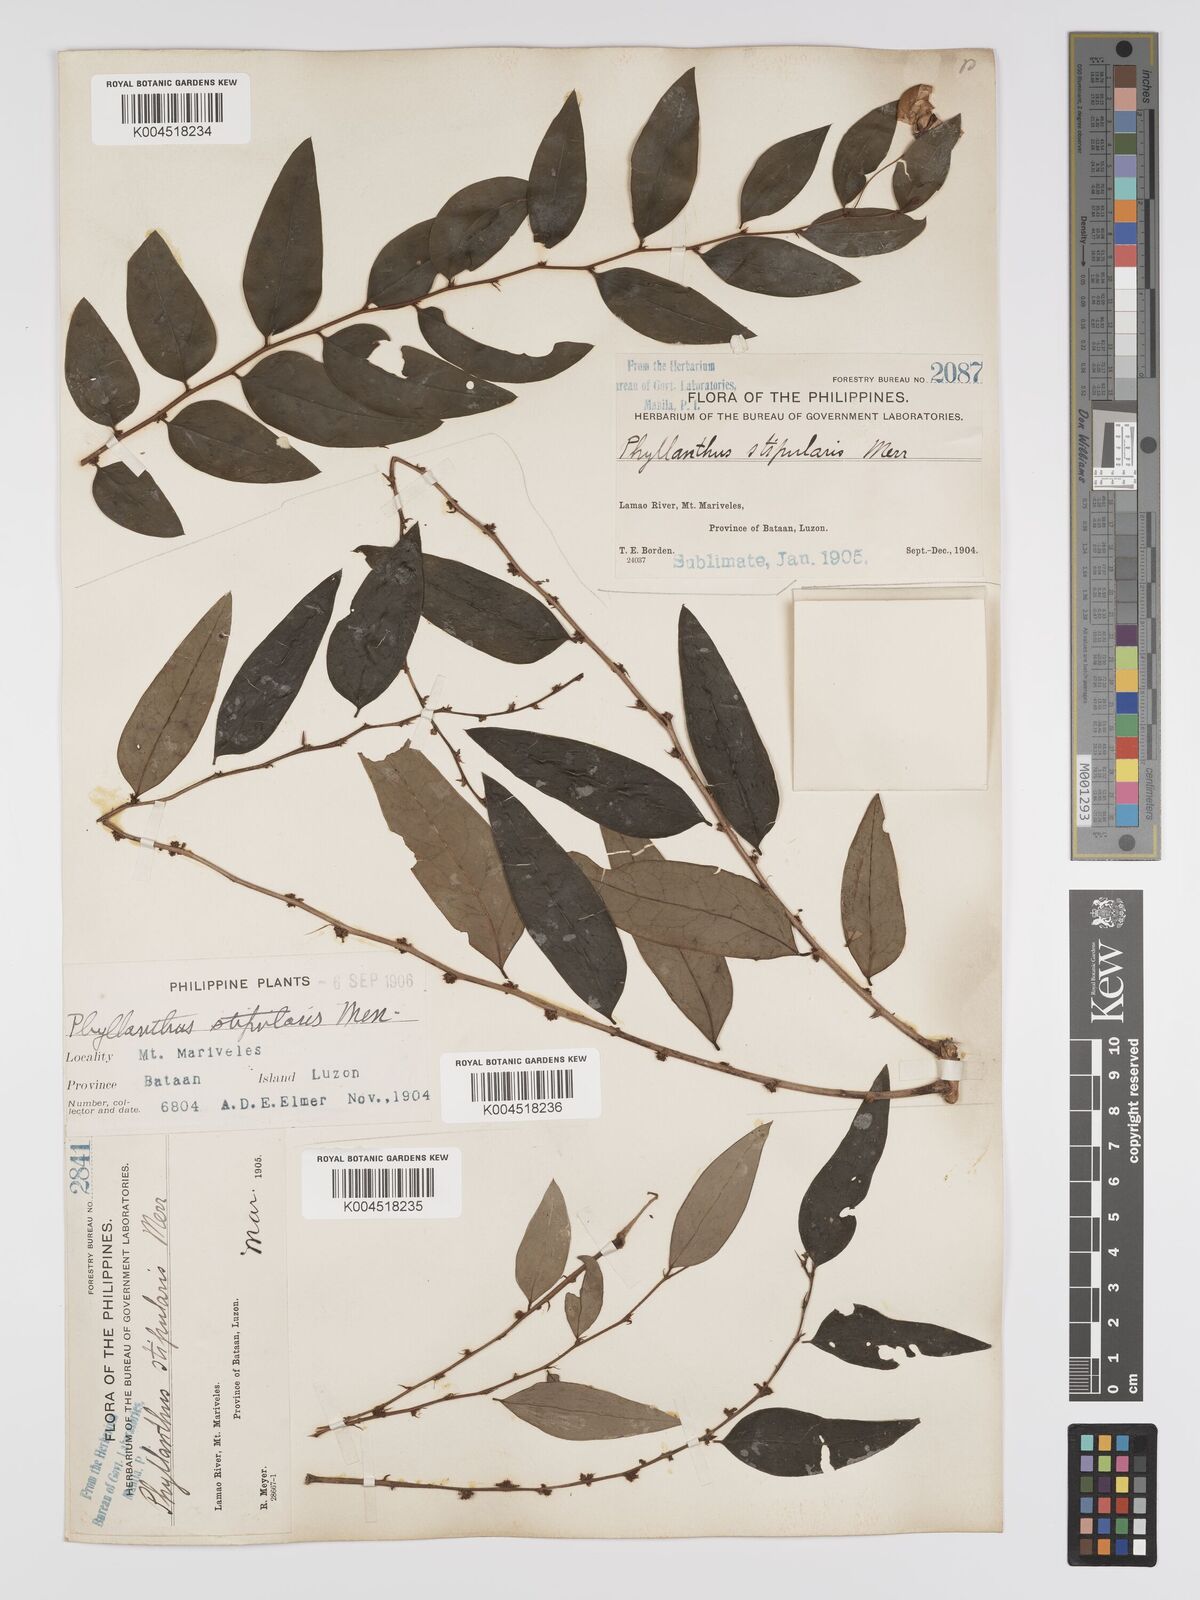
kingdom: Plantae
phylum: Tracheophyta
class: Magnoliopsida
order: Malpighiales
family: Phyllanthaceae
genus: Phyllanthus
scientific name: Phyllanthus stipularis
